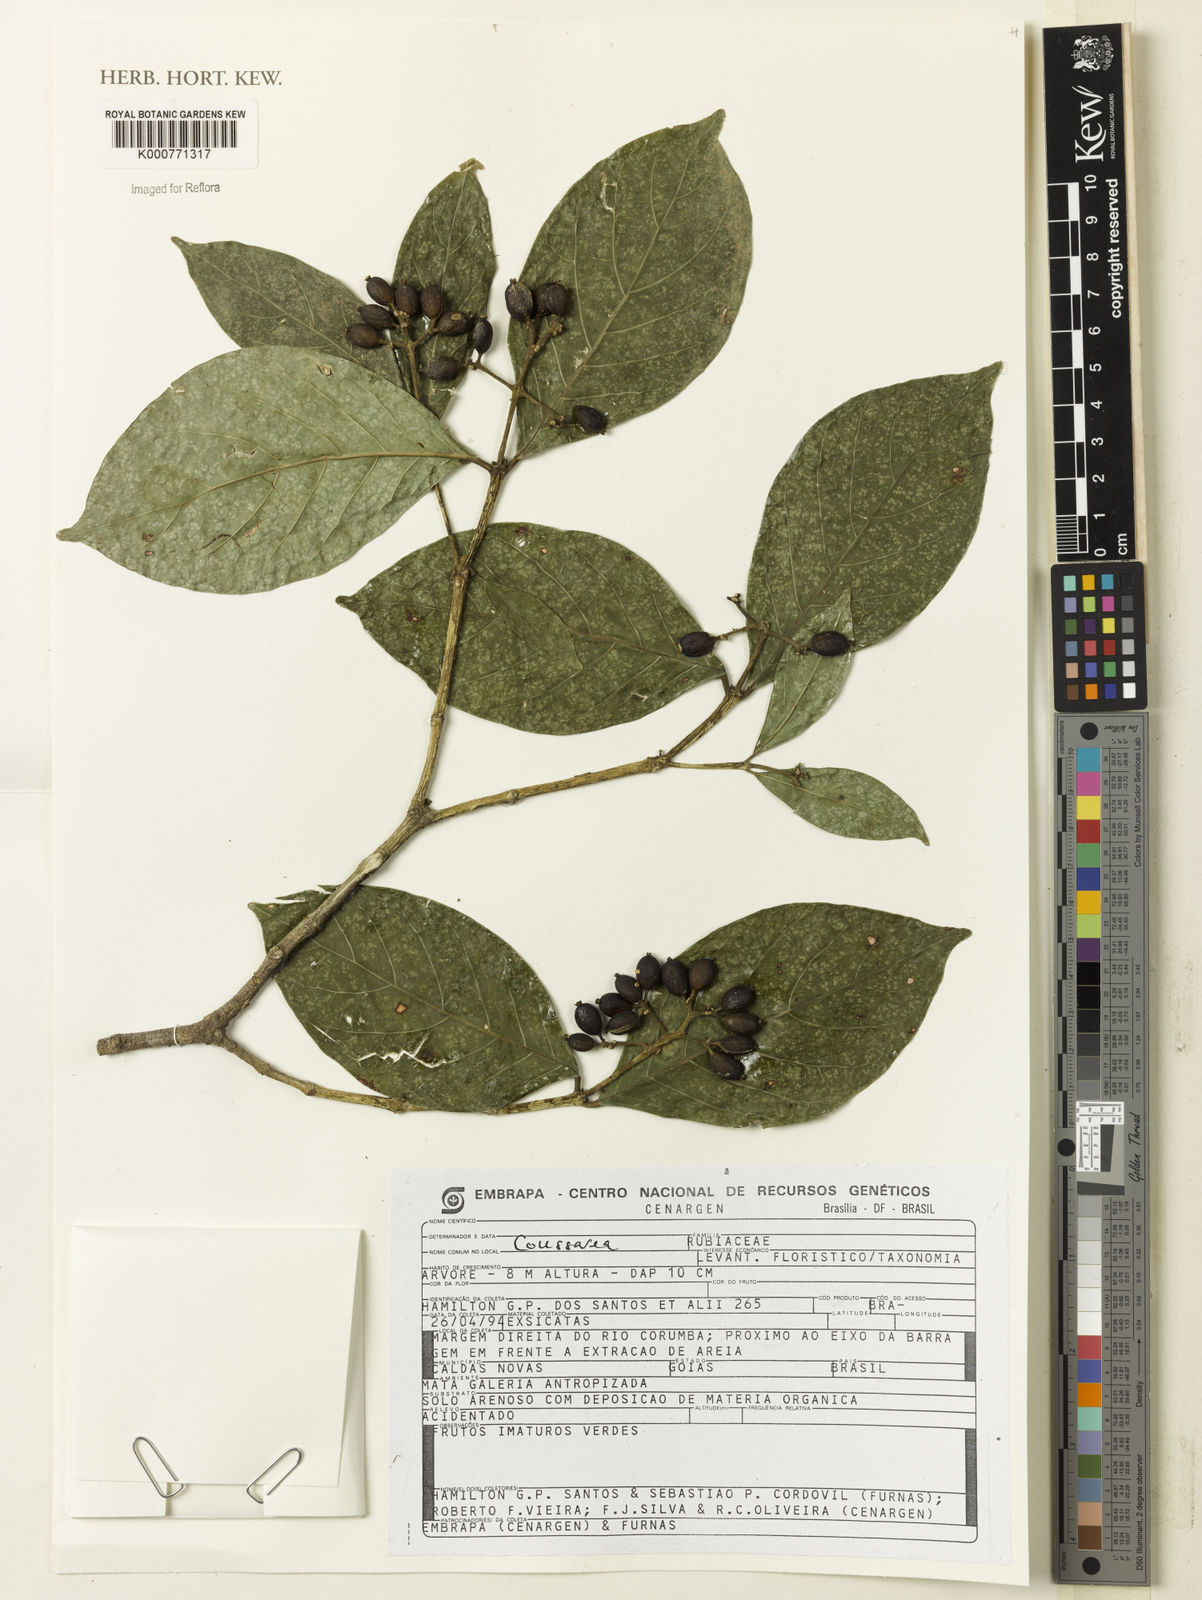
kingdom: Plantae
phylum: Tracheophyta
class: Magnoliopsida
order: Gentianales
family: Rubiaceae
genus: Coussarea
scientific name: Coussarea
